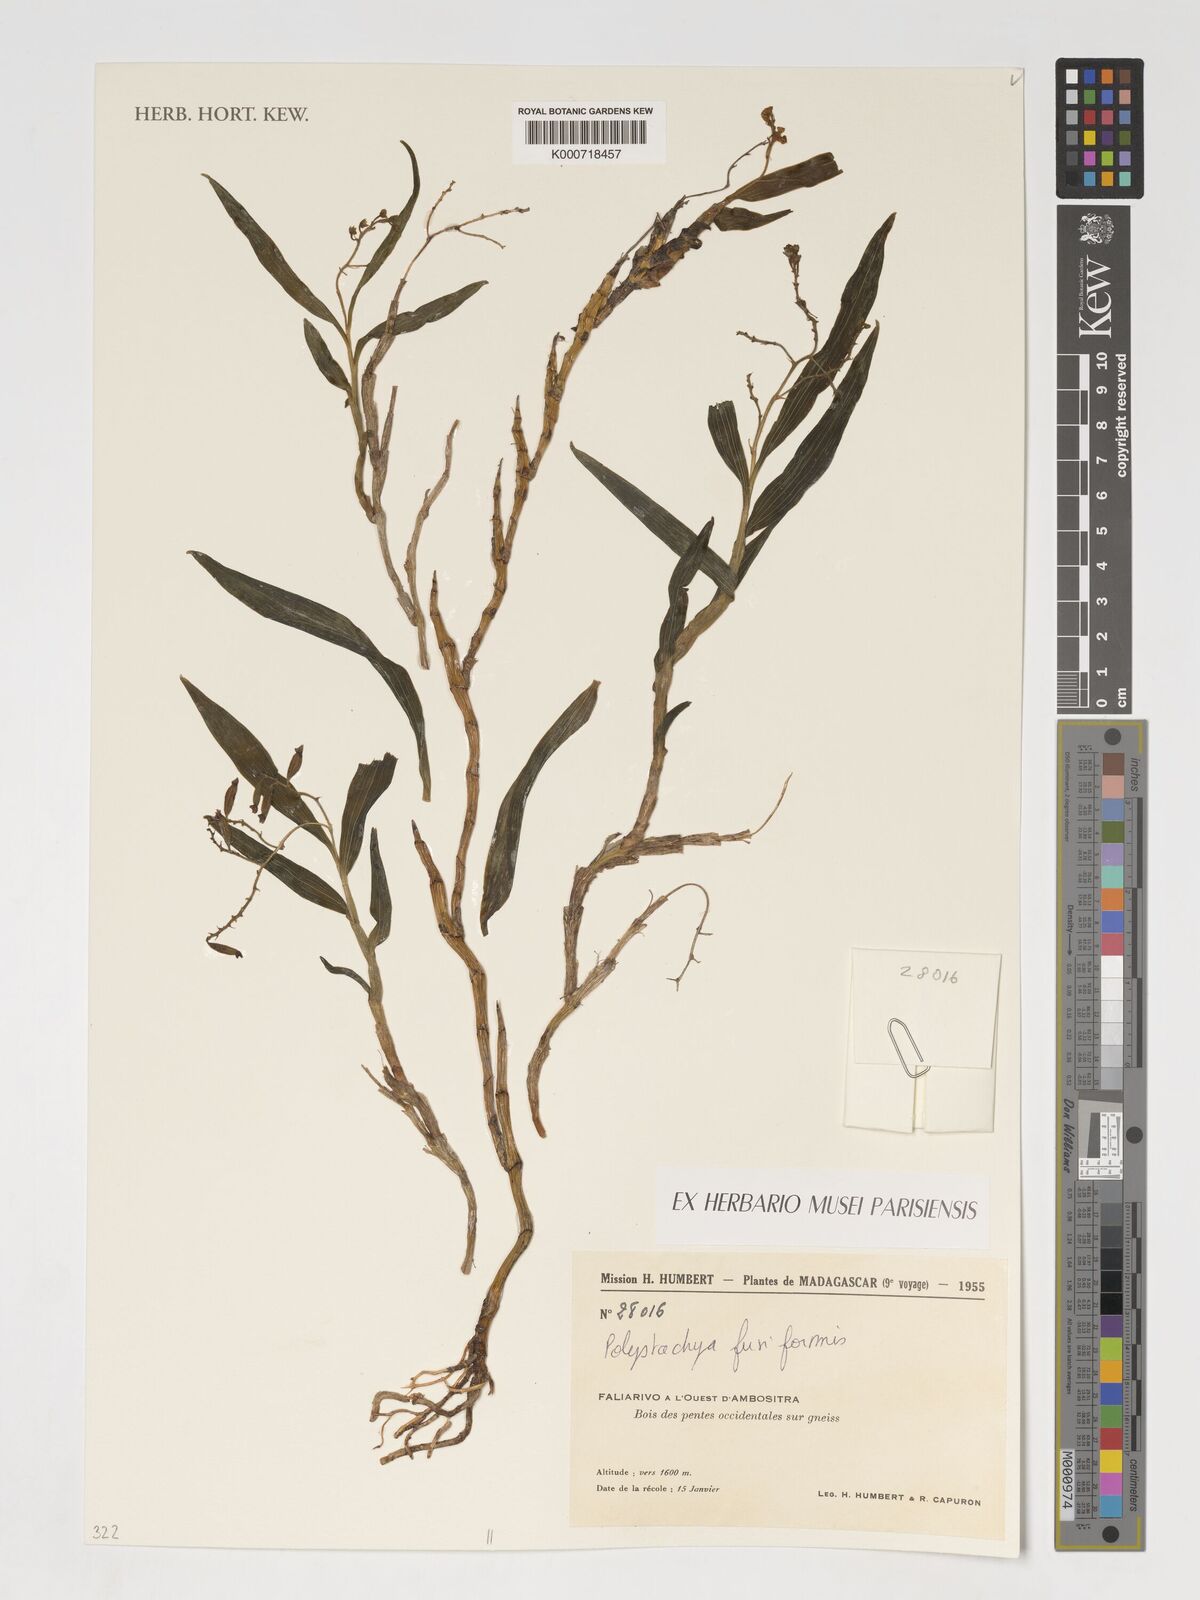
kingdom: Plantae
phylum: Tracheophyta
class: Liliopsida
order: Asparagales
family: Orchidaceae
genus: Polystachya
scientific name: Polystachya fusiformis
